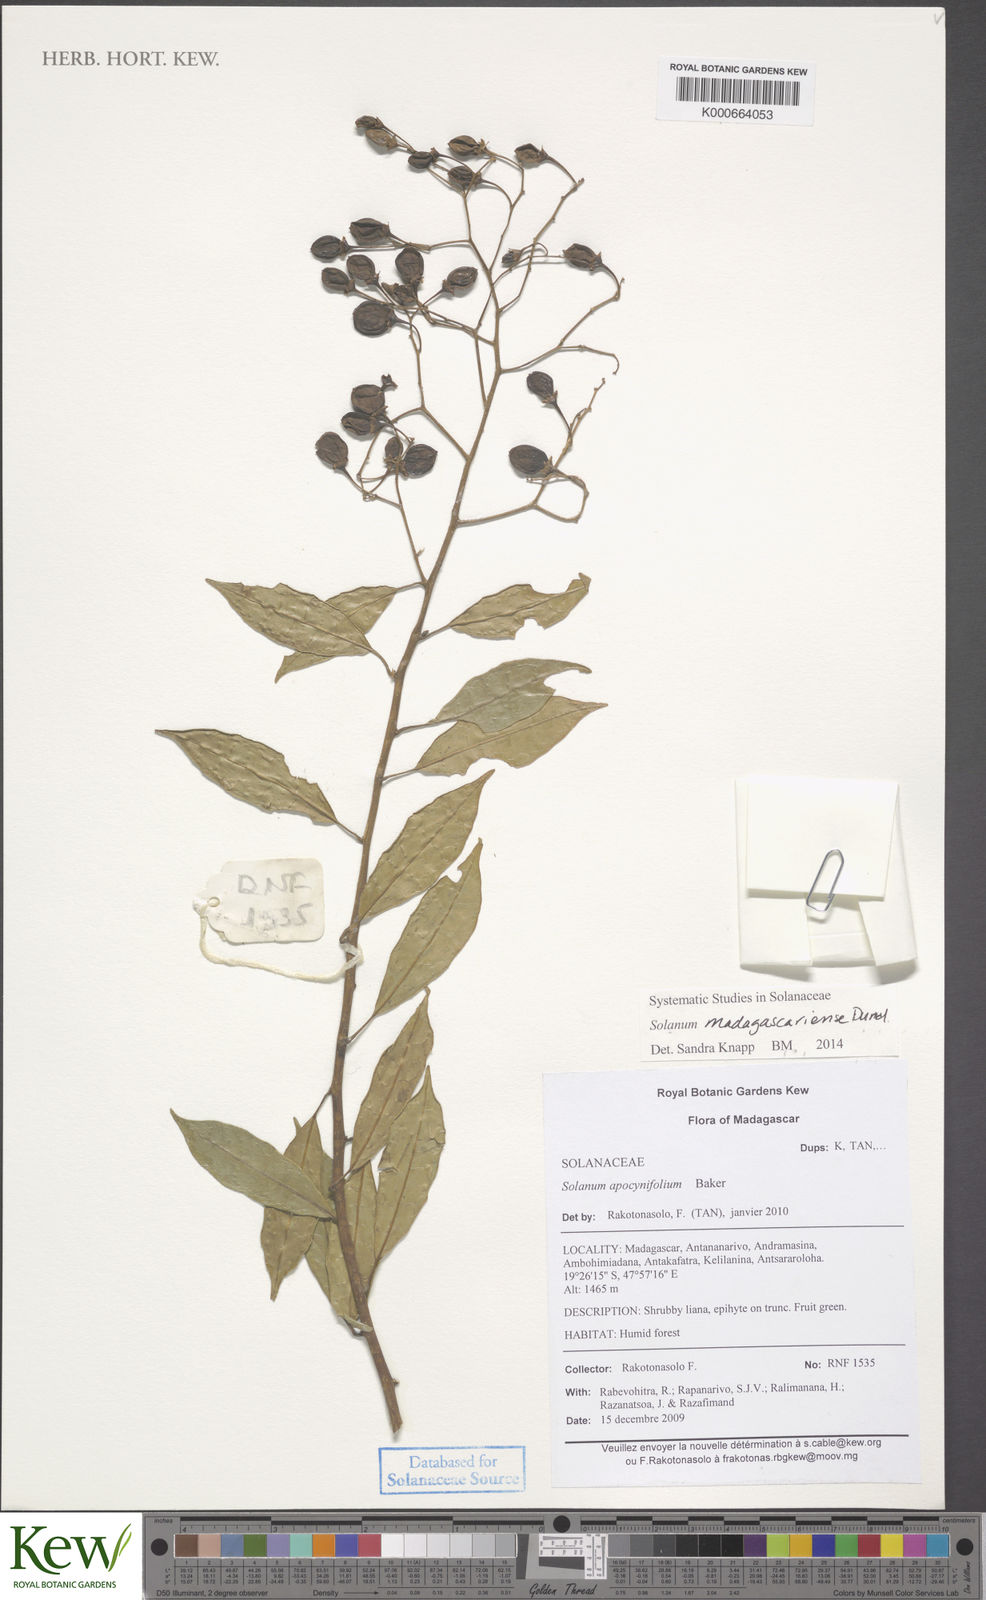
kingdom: Plantae
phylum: Tracheophyta
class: Magnoliopsida
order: Solanales
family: Solanaceae
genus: Solanum
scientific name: Solanum madagascariense
